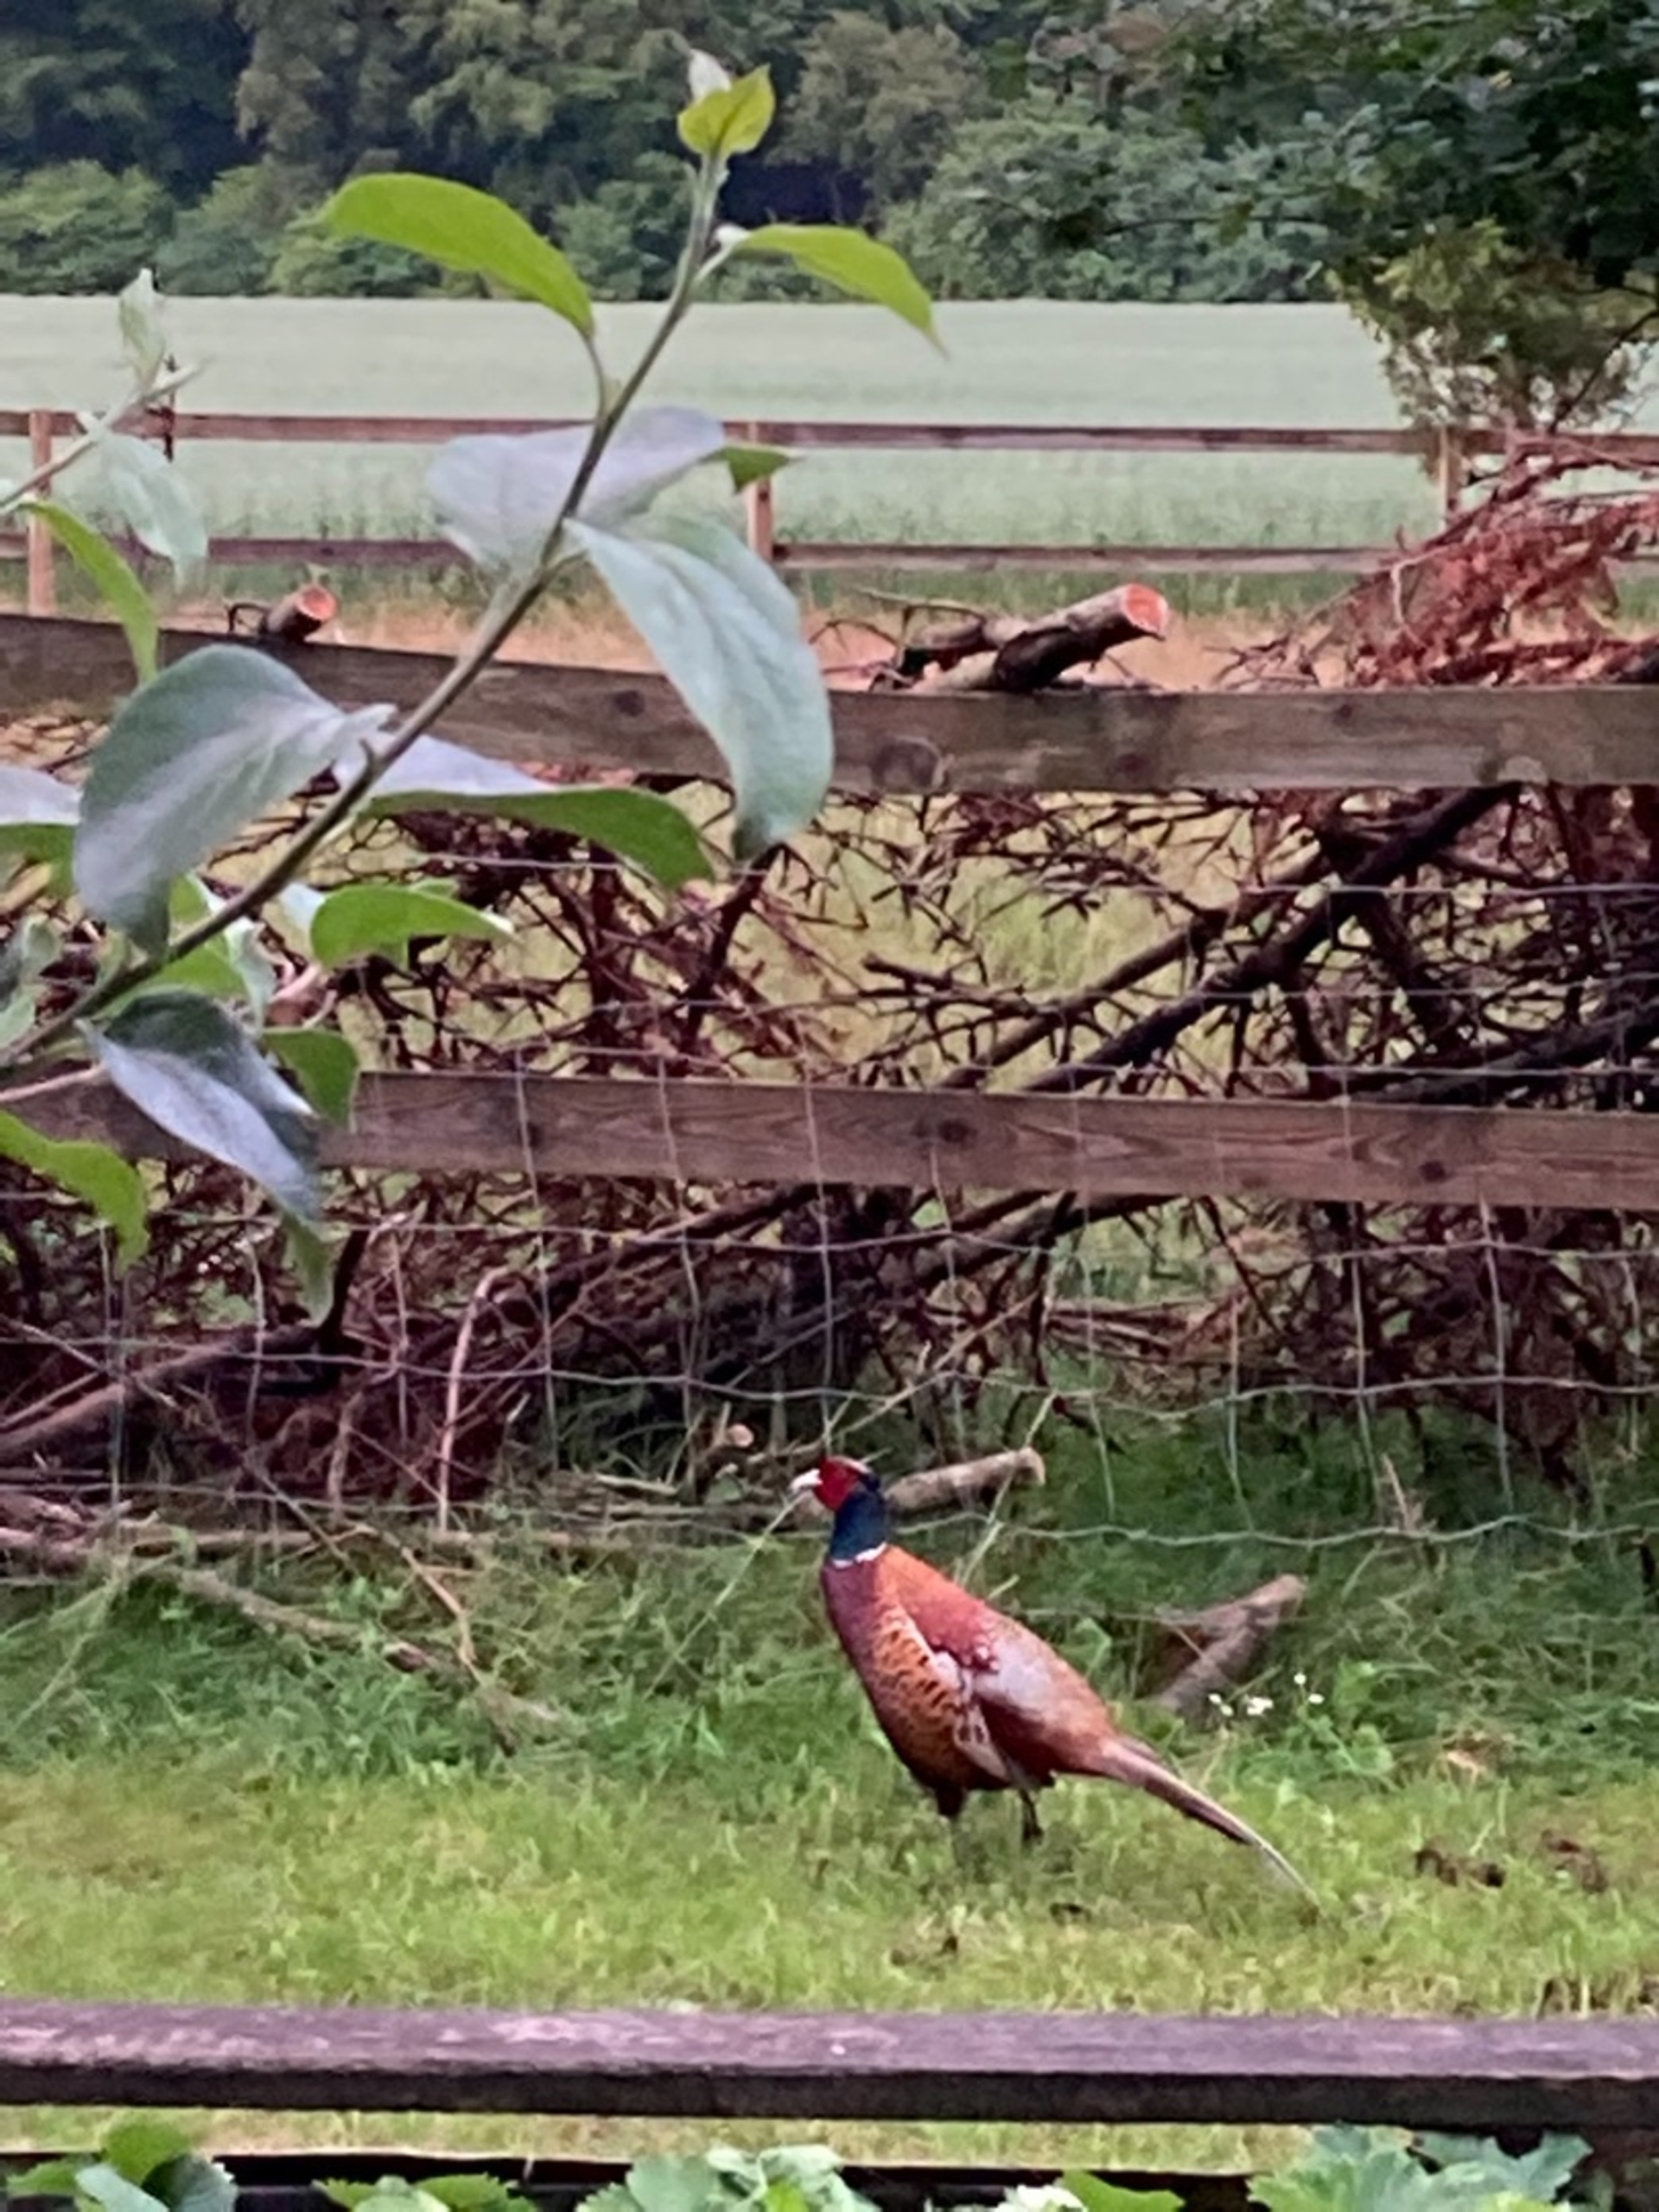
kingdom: Animalia
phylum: Chordata
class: Aves
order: Galliformes
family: Phasianidae
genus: Phasianus
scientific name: Phasianus colchicus
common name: Fasan
